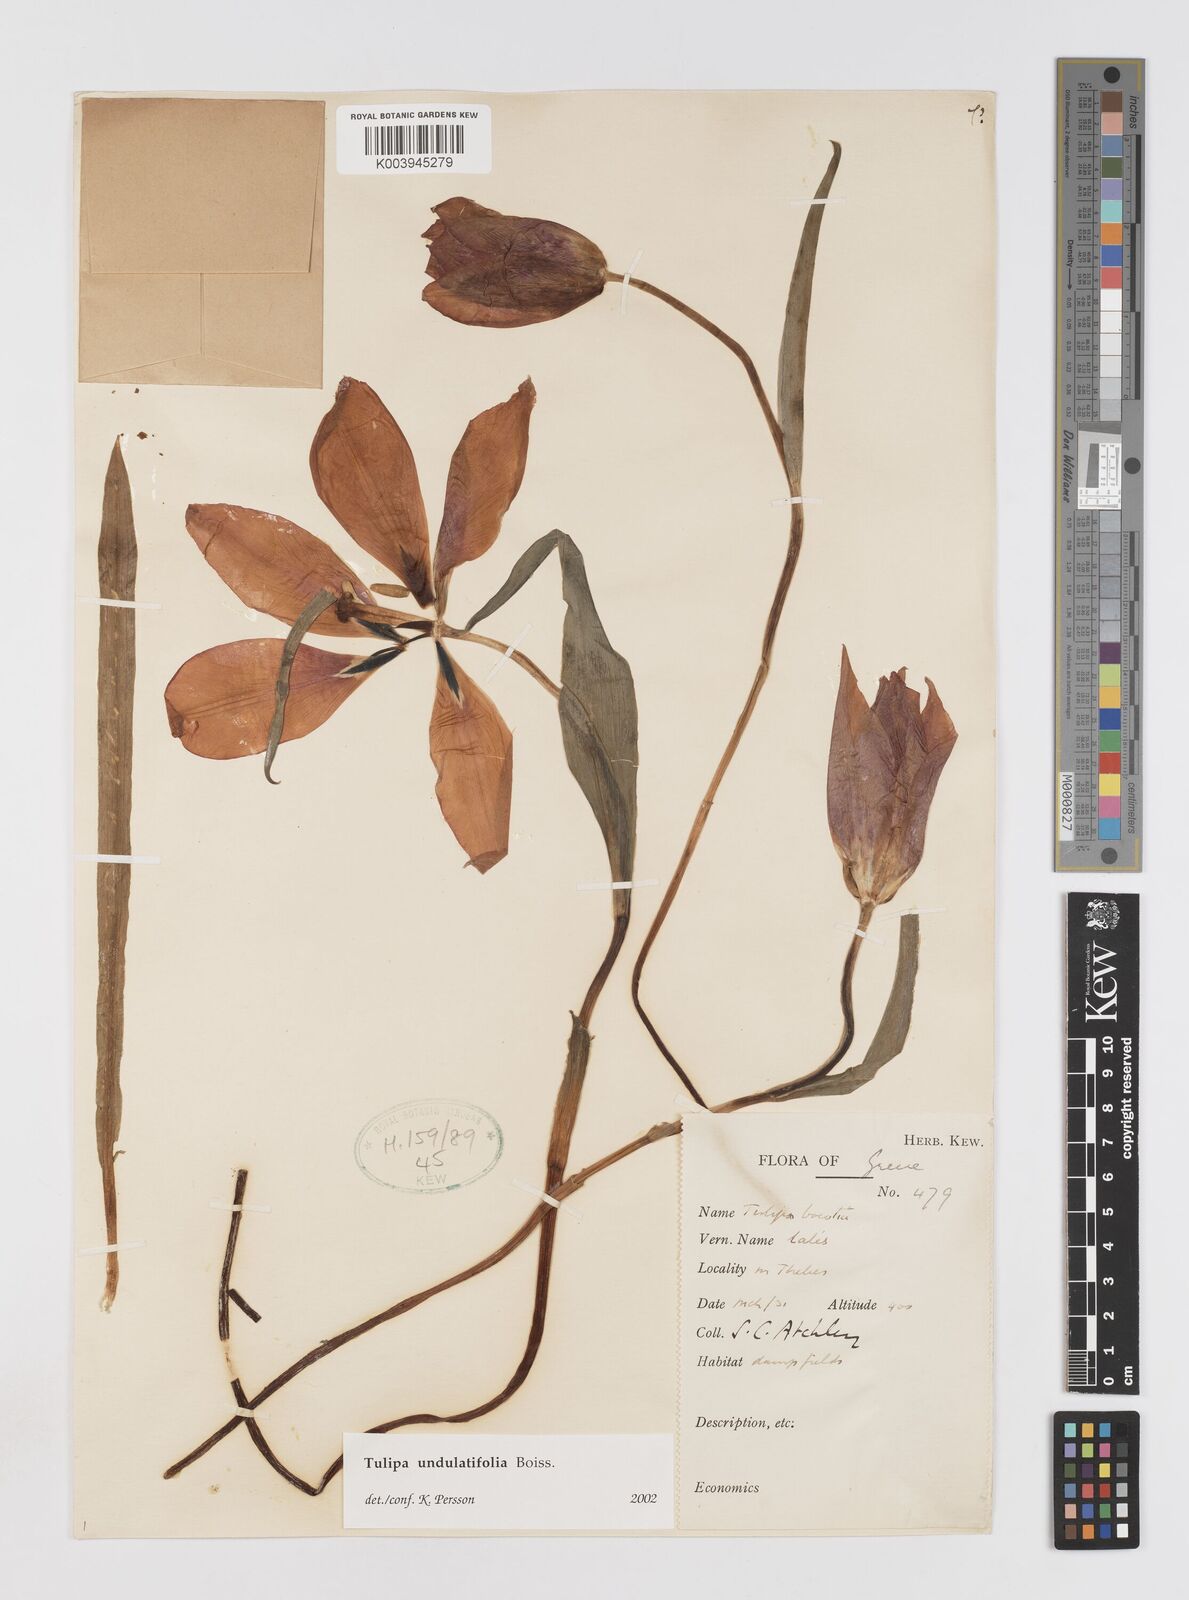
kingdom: Plantae
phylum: Tracheophyta
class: Liliopsida
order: Liliales
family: Liliaceae
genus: Tulipa
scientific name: Tulipa undulatifolia
